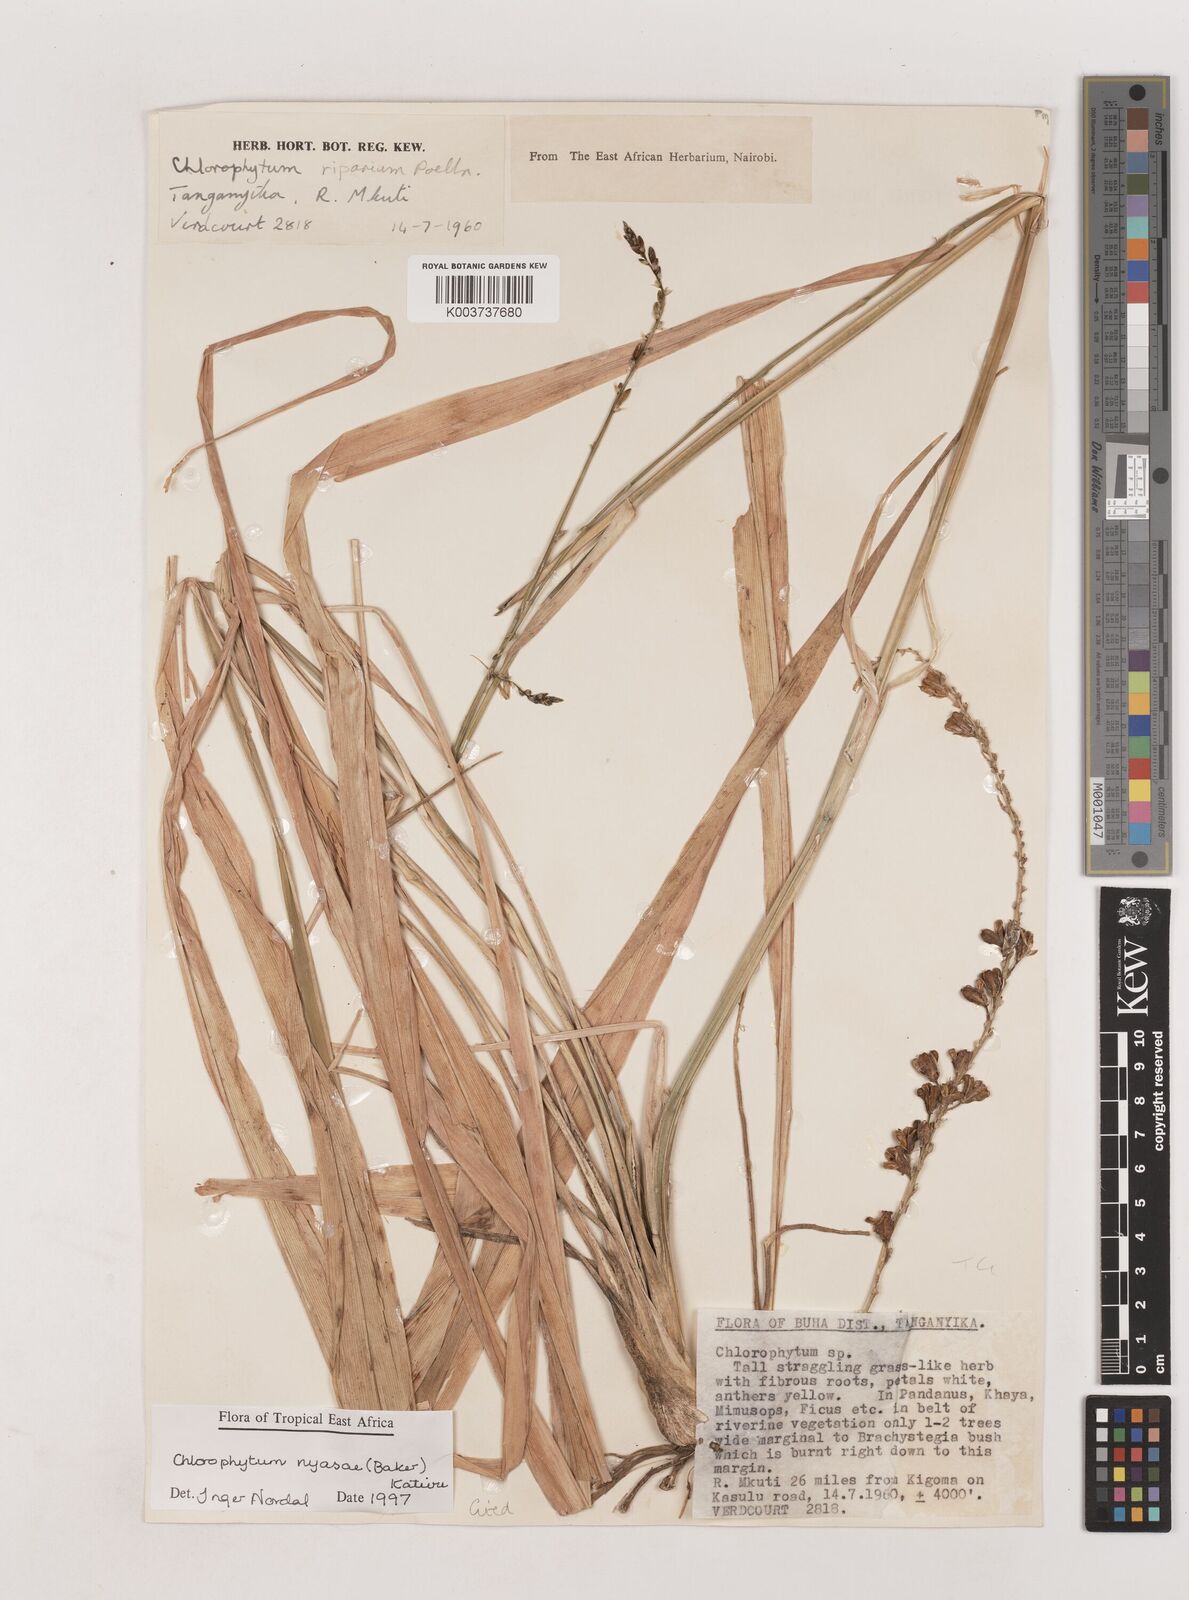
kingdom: Plantae
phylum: Tracheophyta
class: Liliopsida
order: Asparagales
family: Asparagaceae
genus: Chlorophytum
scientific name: Chlorophytum nyasae
